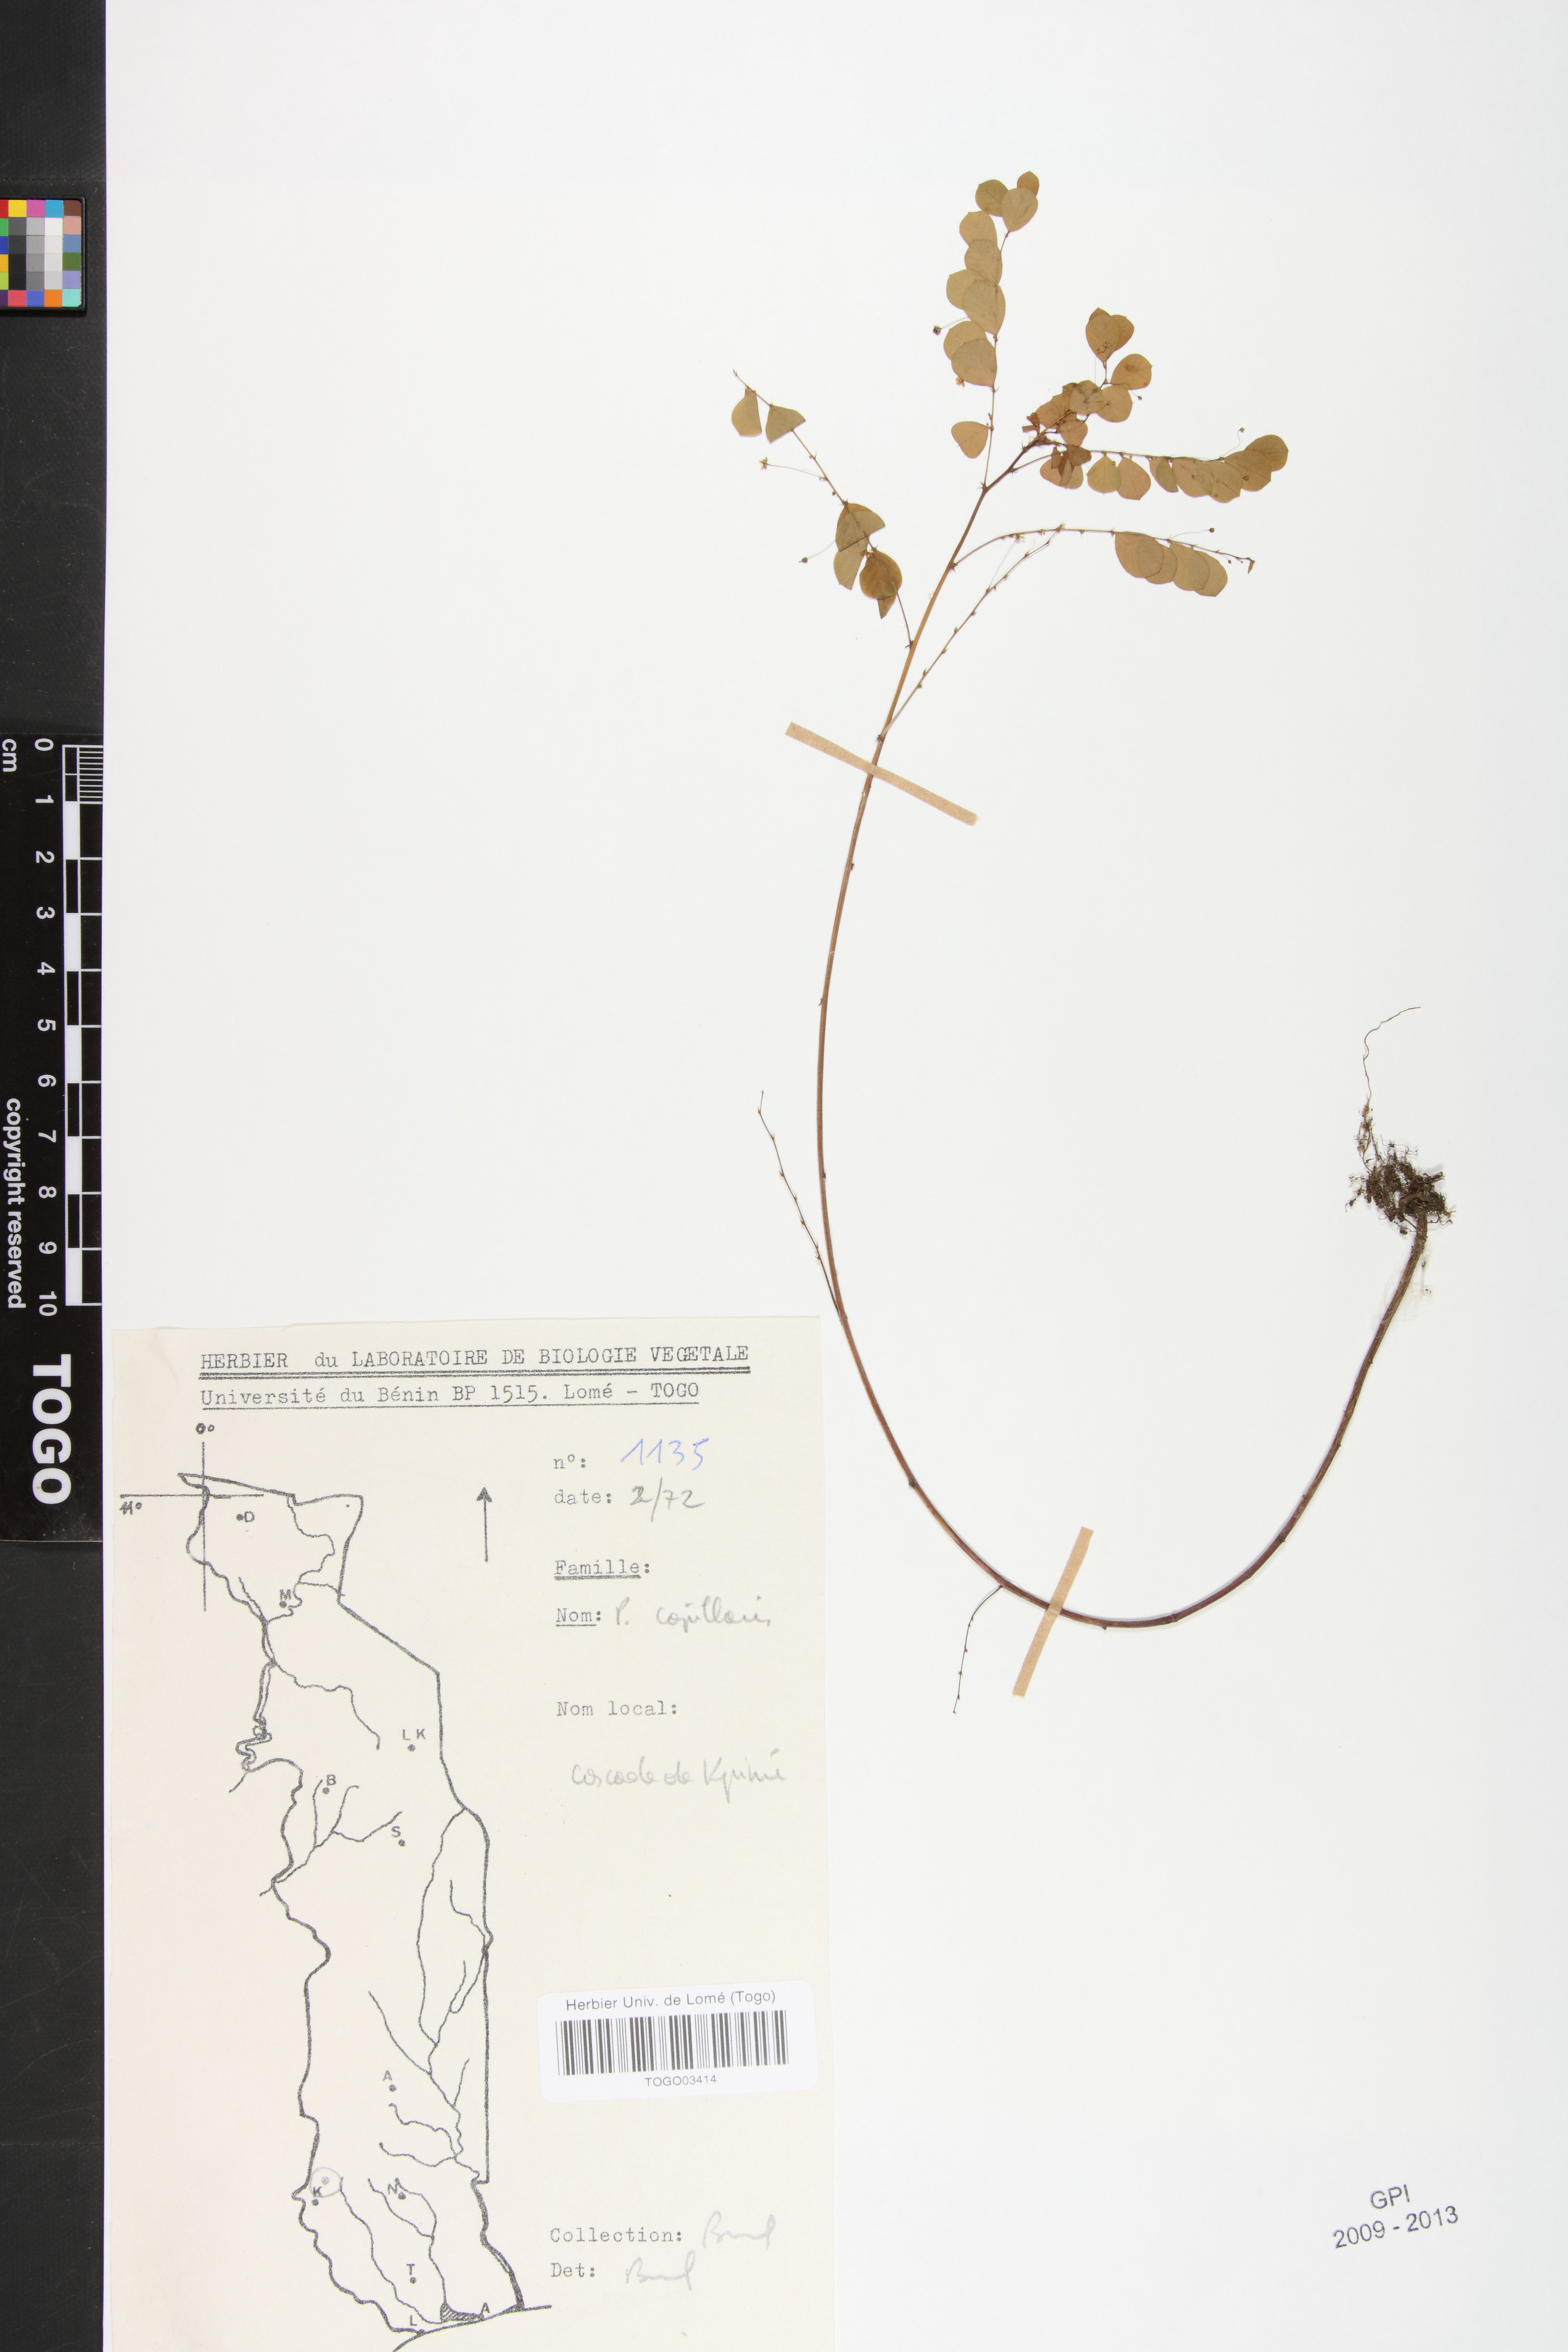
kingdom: Plantae
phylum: Tracheophyta
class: Magnoliopsida
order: Malpighiales
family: Phyllanthaceae
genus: Phyllanthus
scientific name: Phyllanthus nummulariifolius
